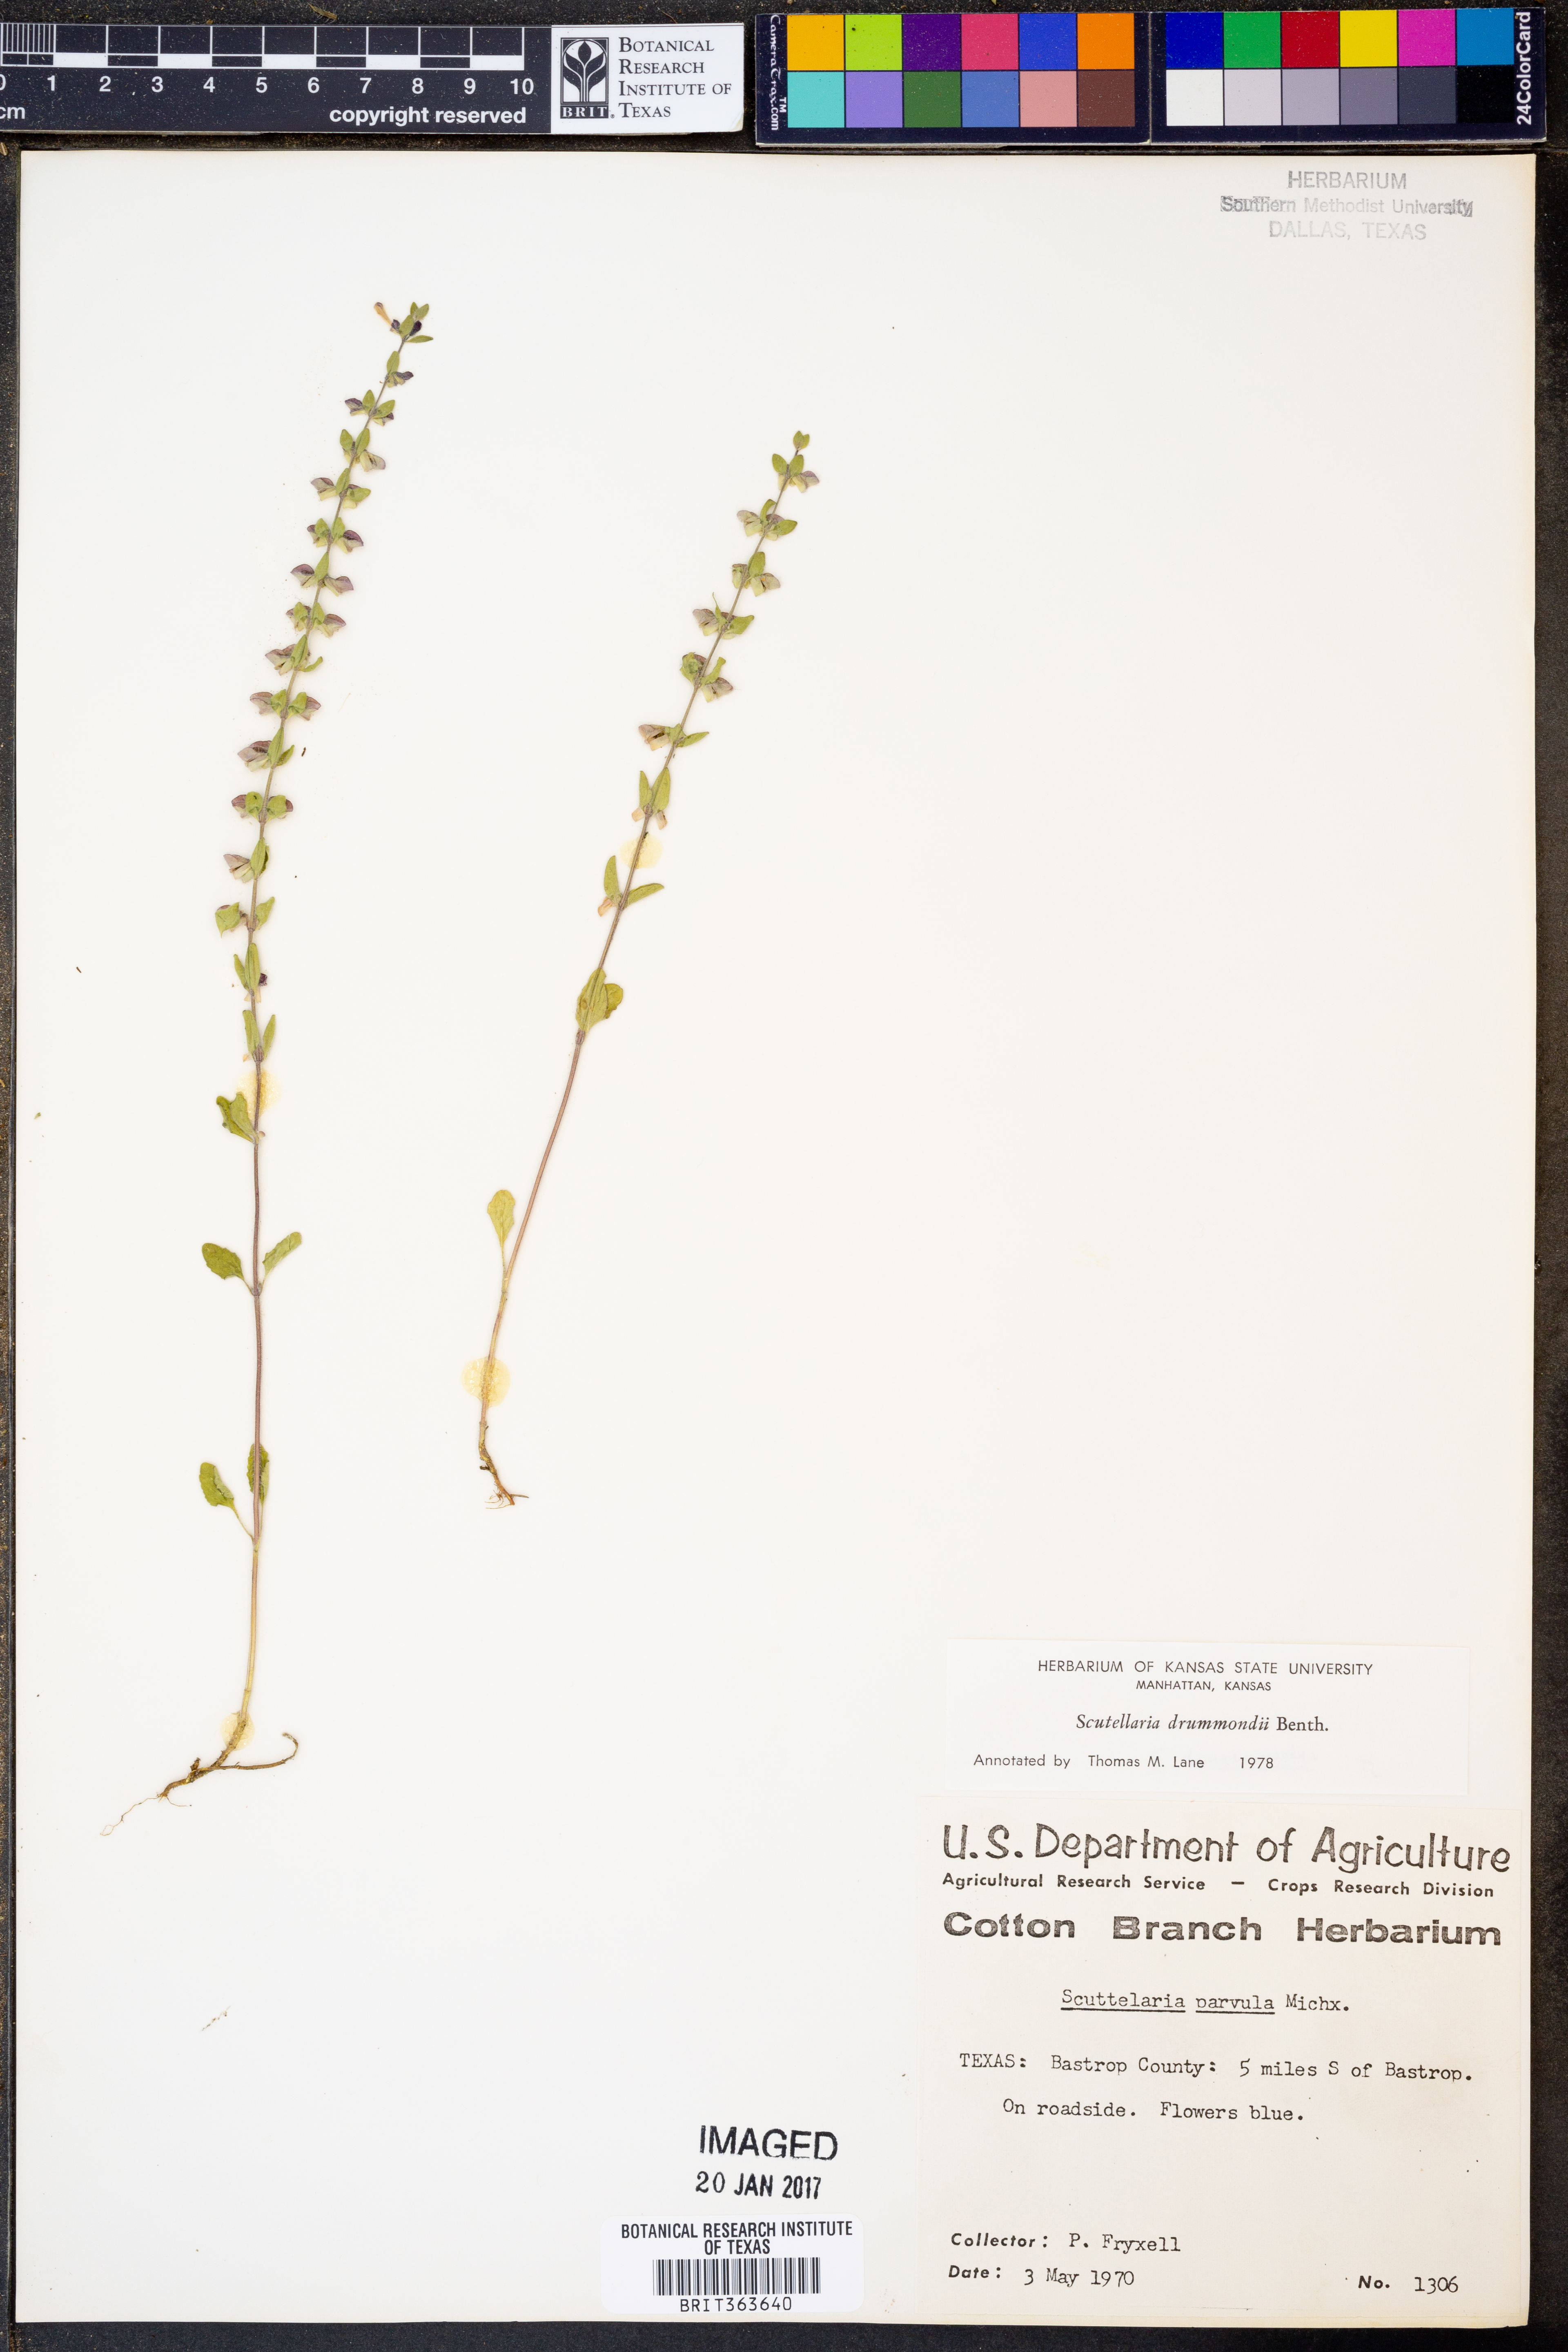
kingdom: Plantae
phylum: Tracheophyta
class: Magnoliopsida
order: Lamiales
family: Lamiaceae
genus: Scutellaria
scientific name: Scutellaria drummondii
